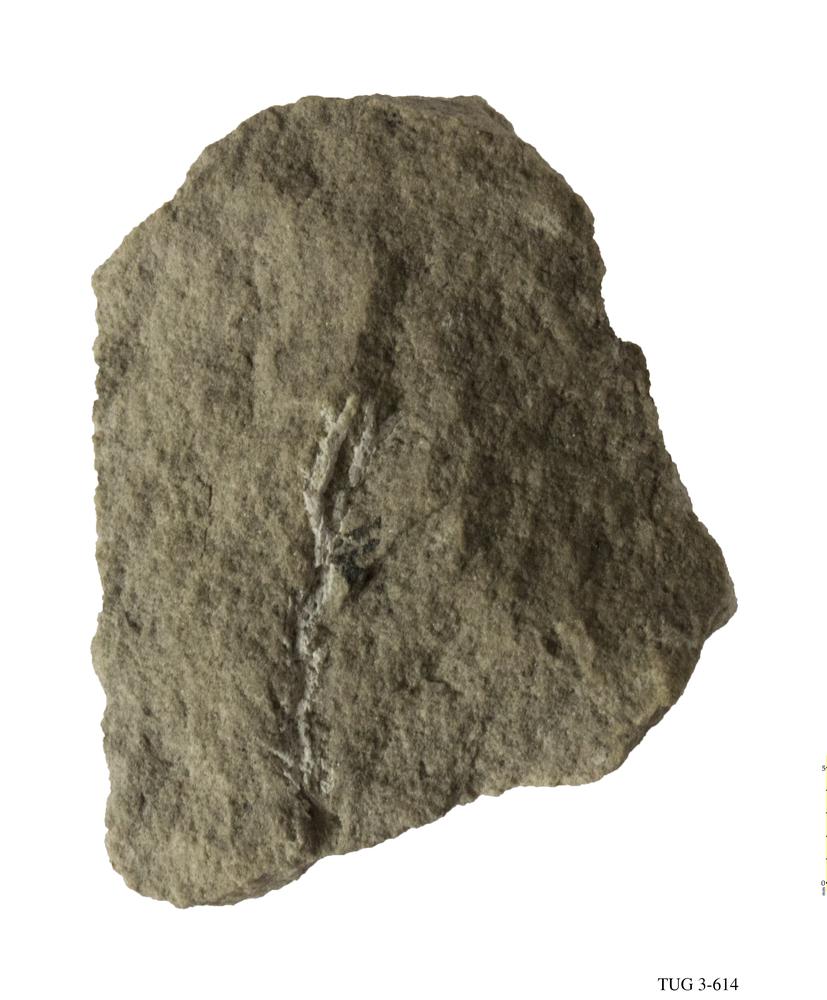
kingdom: Animalia
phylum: Bryozoa
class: Stenolaemata
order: Fenestrida
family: Phylloporinidae
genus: Pseudohornera
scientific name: Pseudohornera orosa
